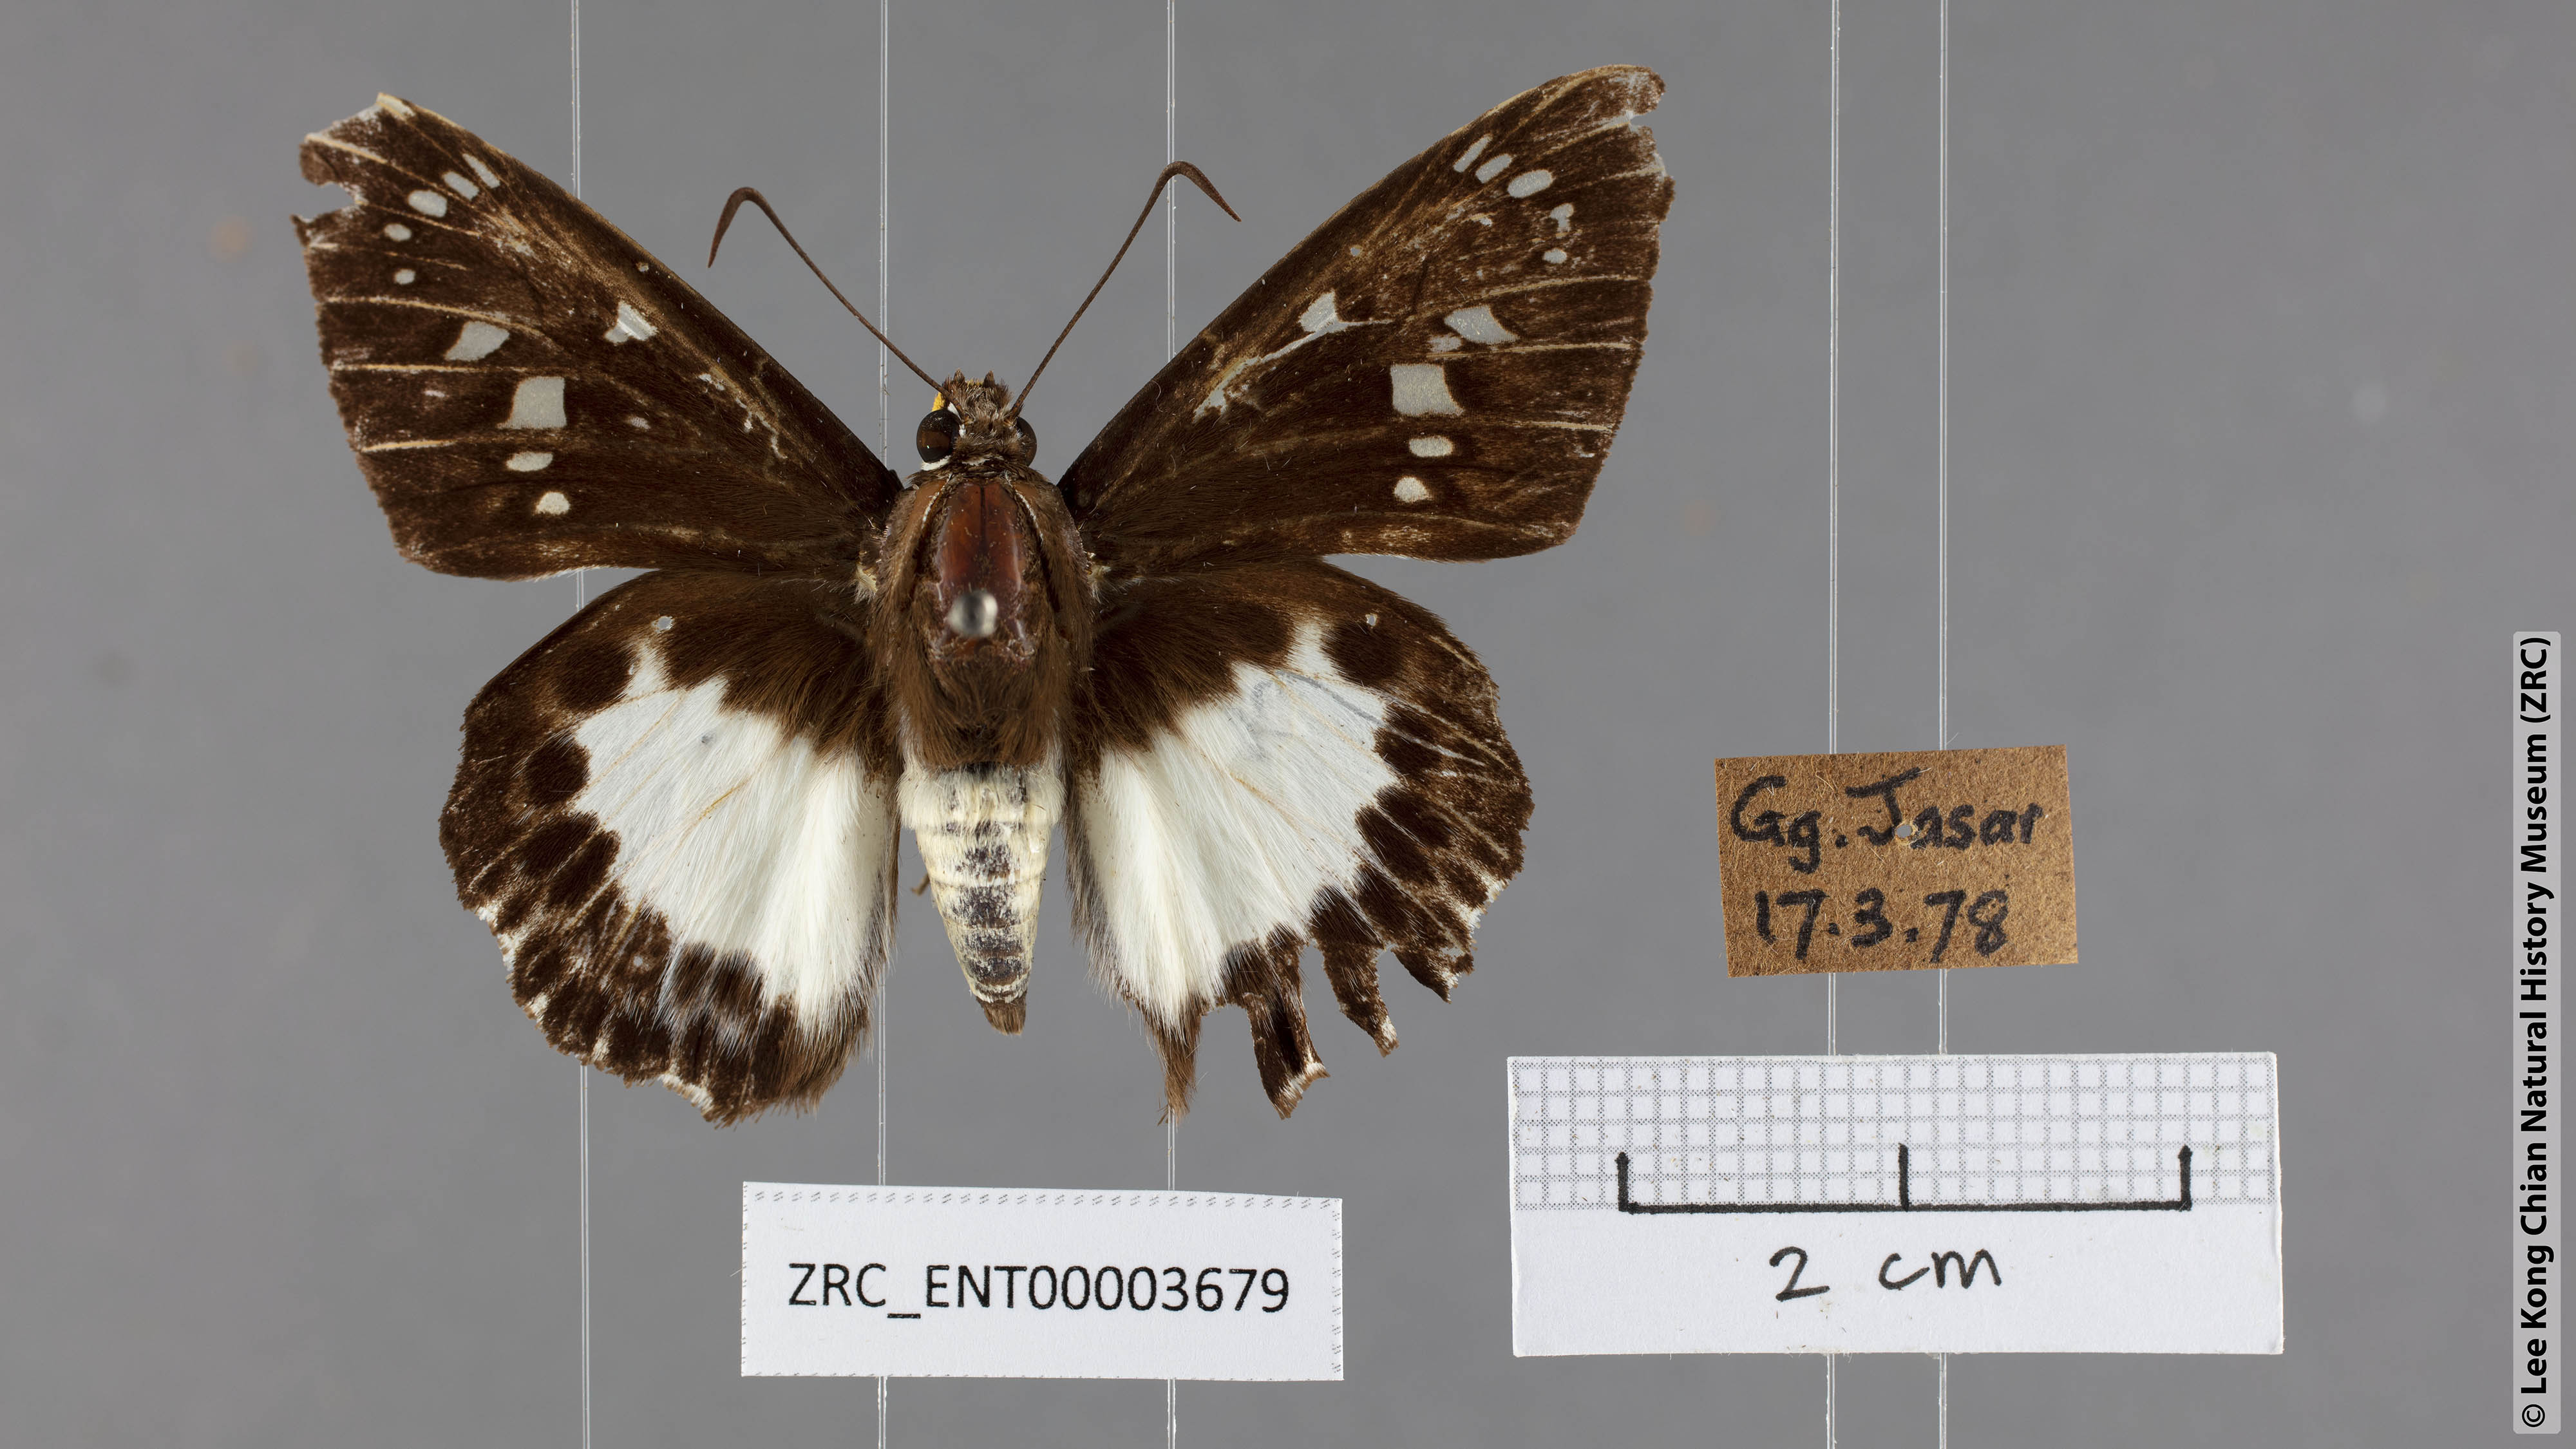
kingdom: Animalia
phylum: Arthropoda
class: Insecta
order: Lepidoptera
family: Hesperiidae
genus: Satarupa
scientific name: Satarupa gopala
